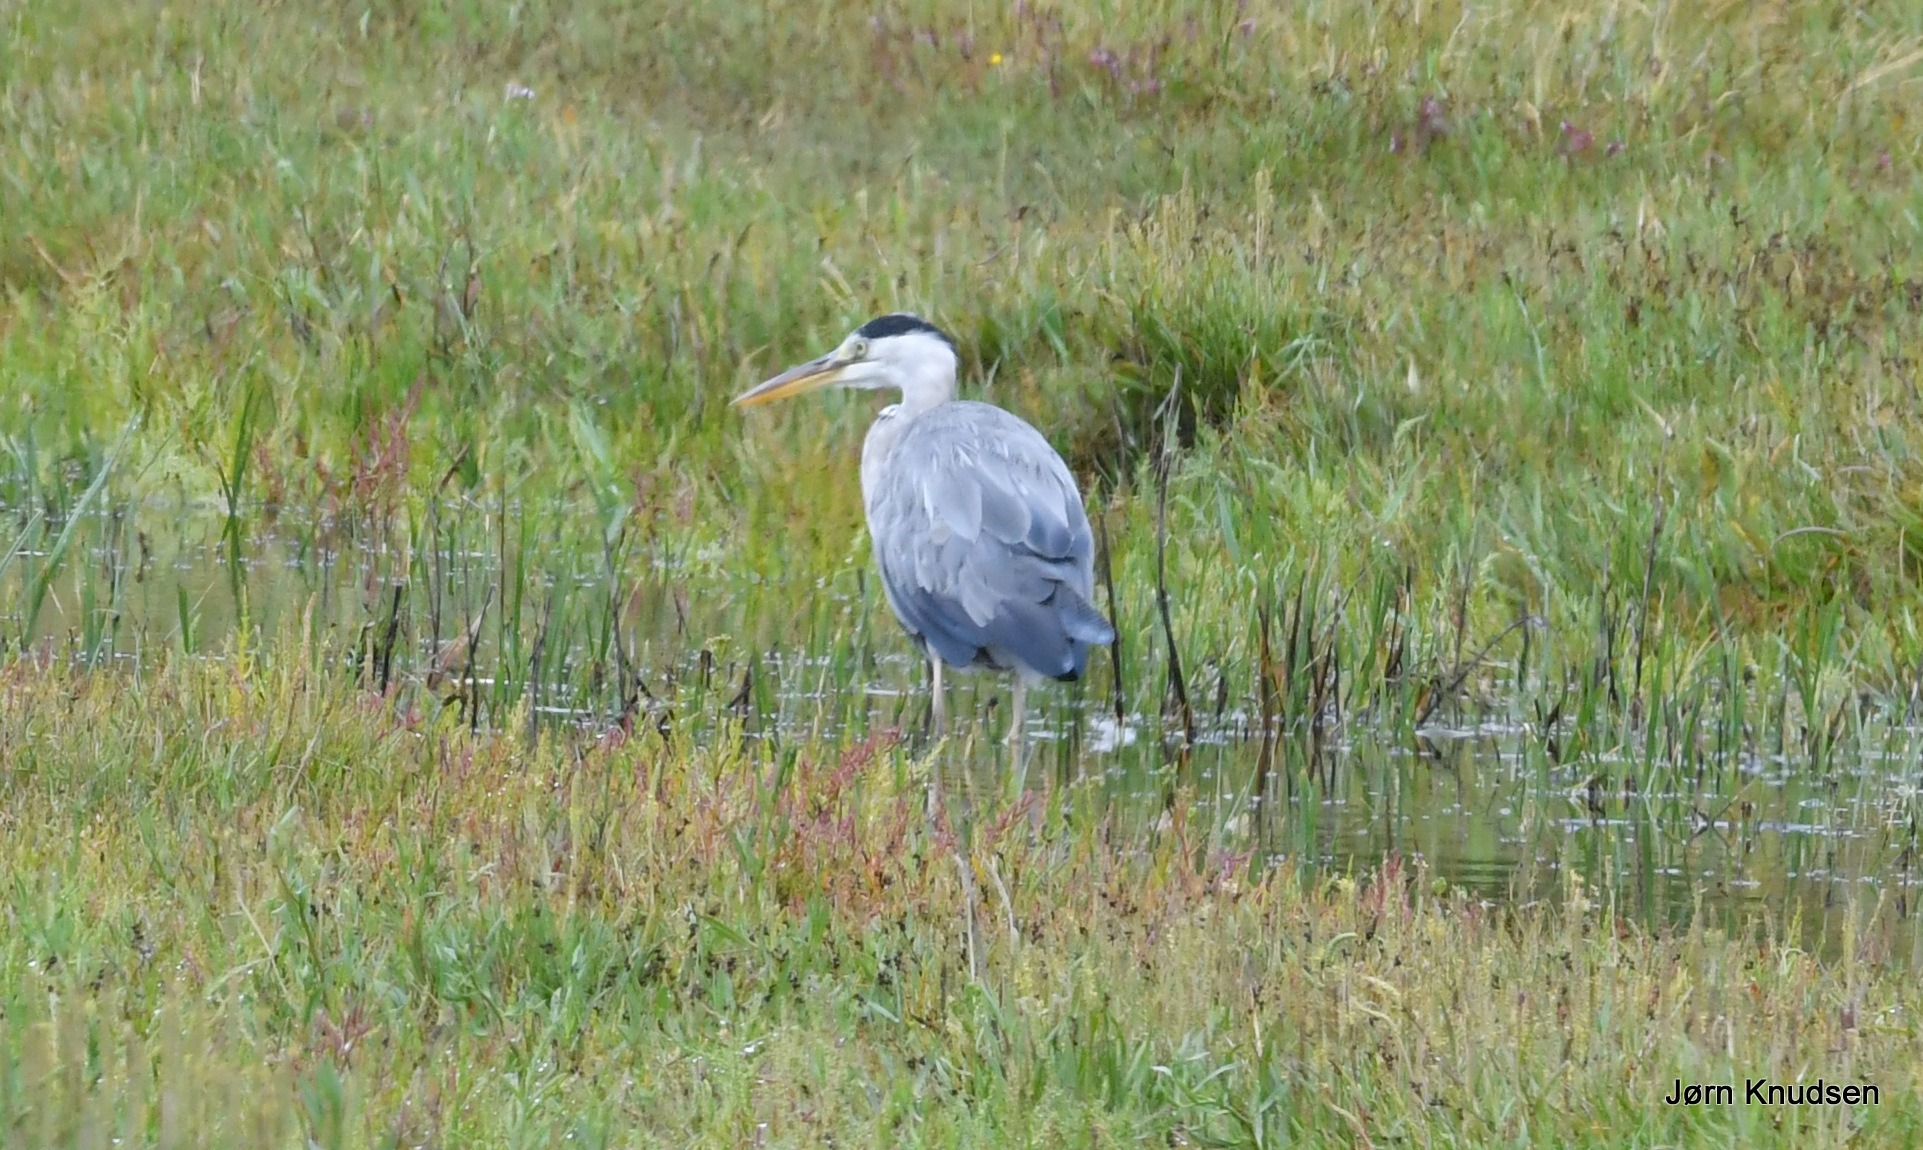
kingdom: Animalia
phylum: Chordata
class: Aves
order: Pelecaniformes
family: Ardeidae
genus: Ardea
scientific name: Ardea cinerea
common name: Fiskehejre
